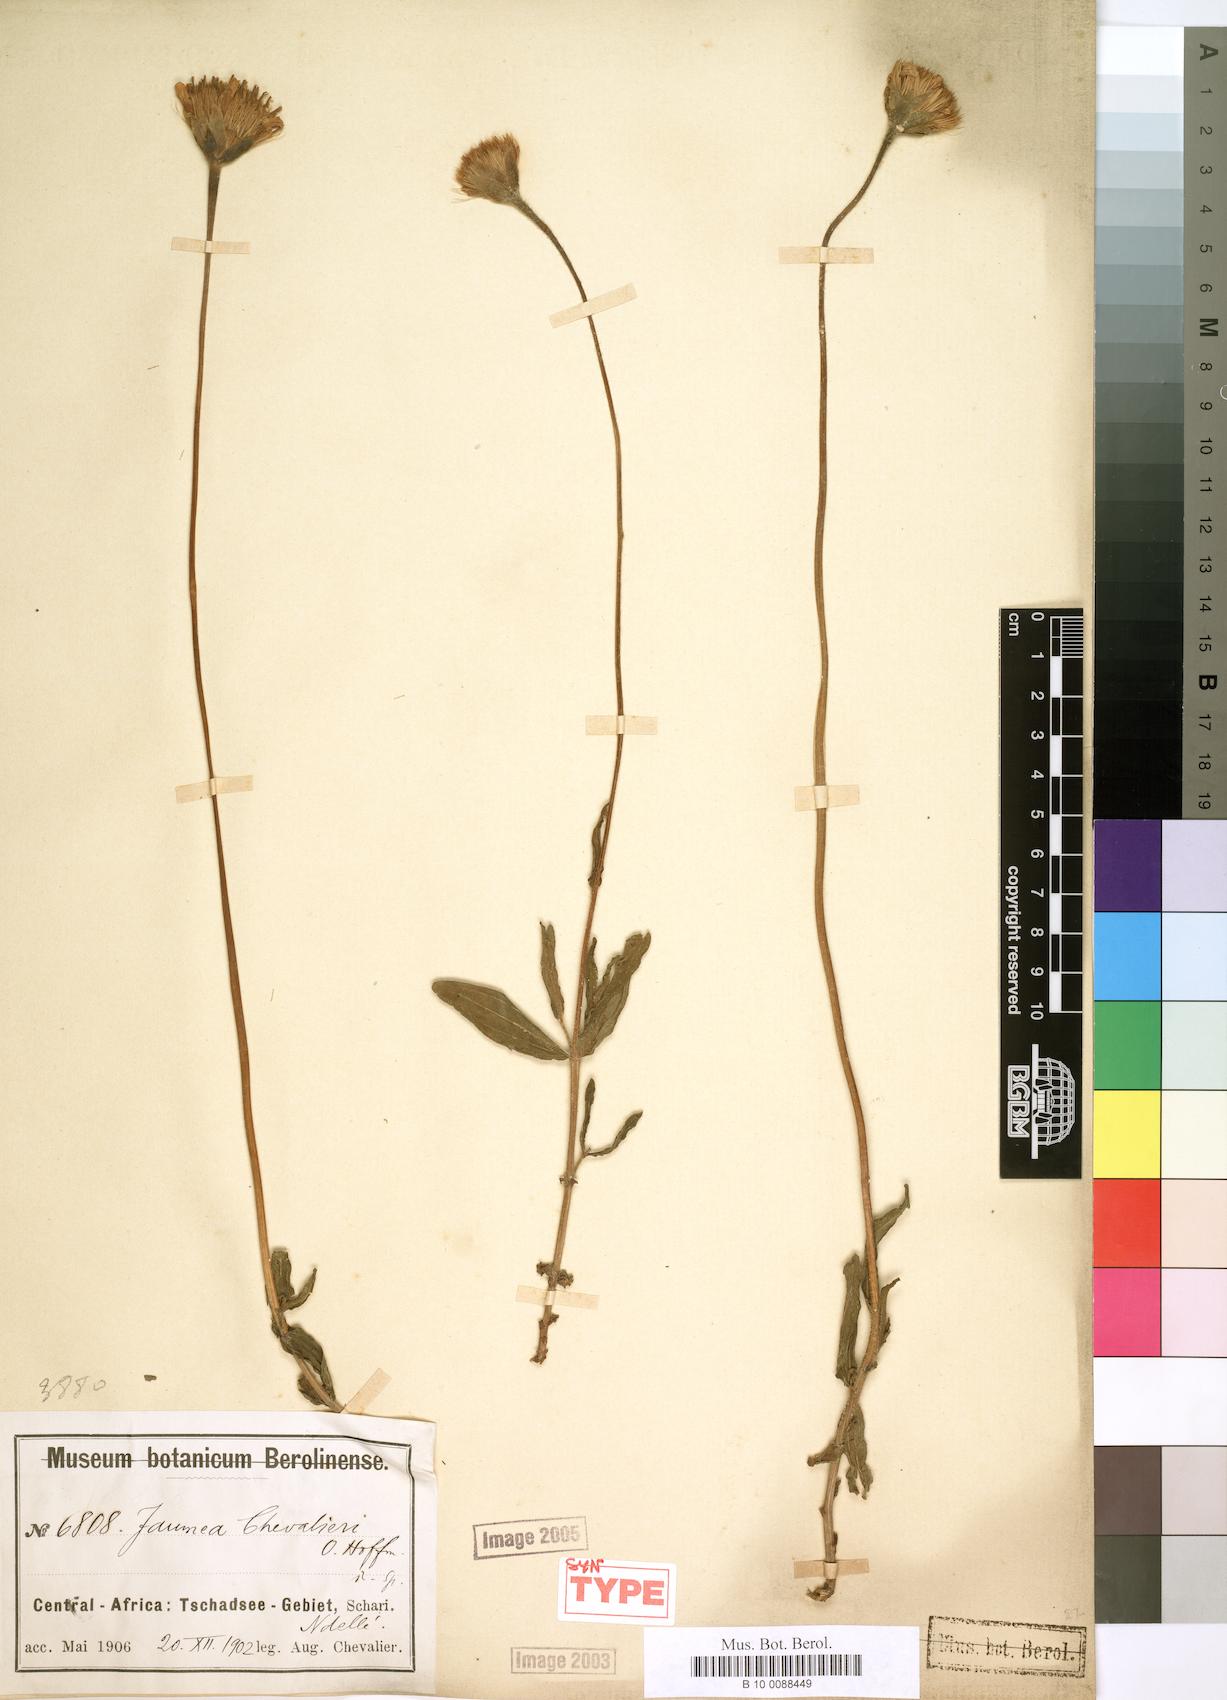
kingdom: Plantae
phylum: Tracheophyta
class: Magnoliopsida
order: Asterales
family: Asteraceae
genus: Hypericophyllum
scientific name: Hypericophyllum chevalieri
